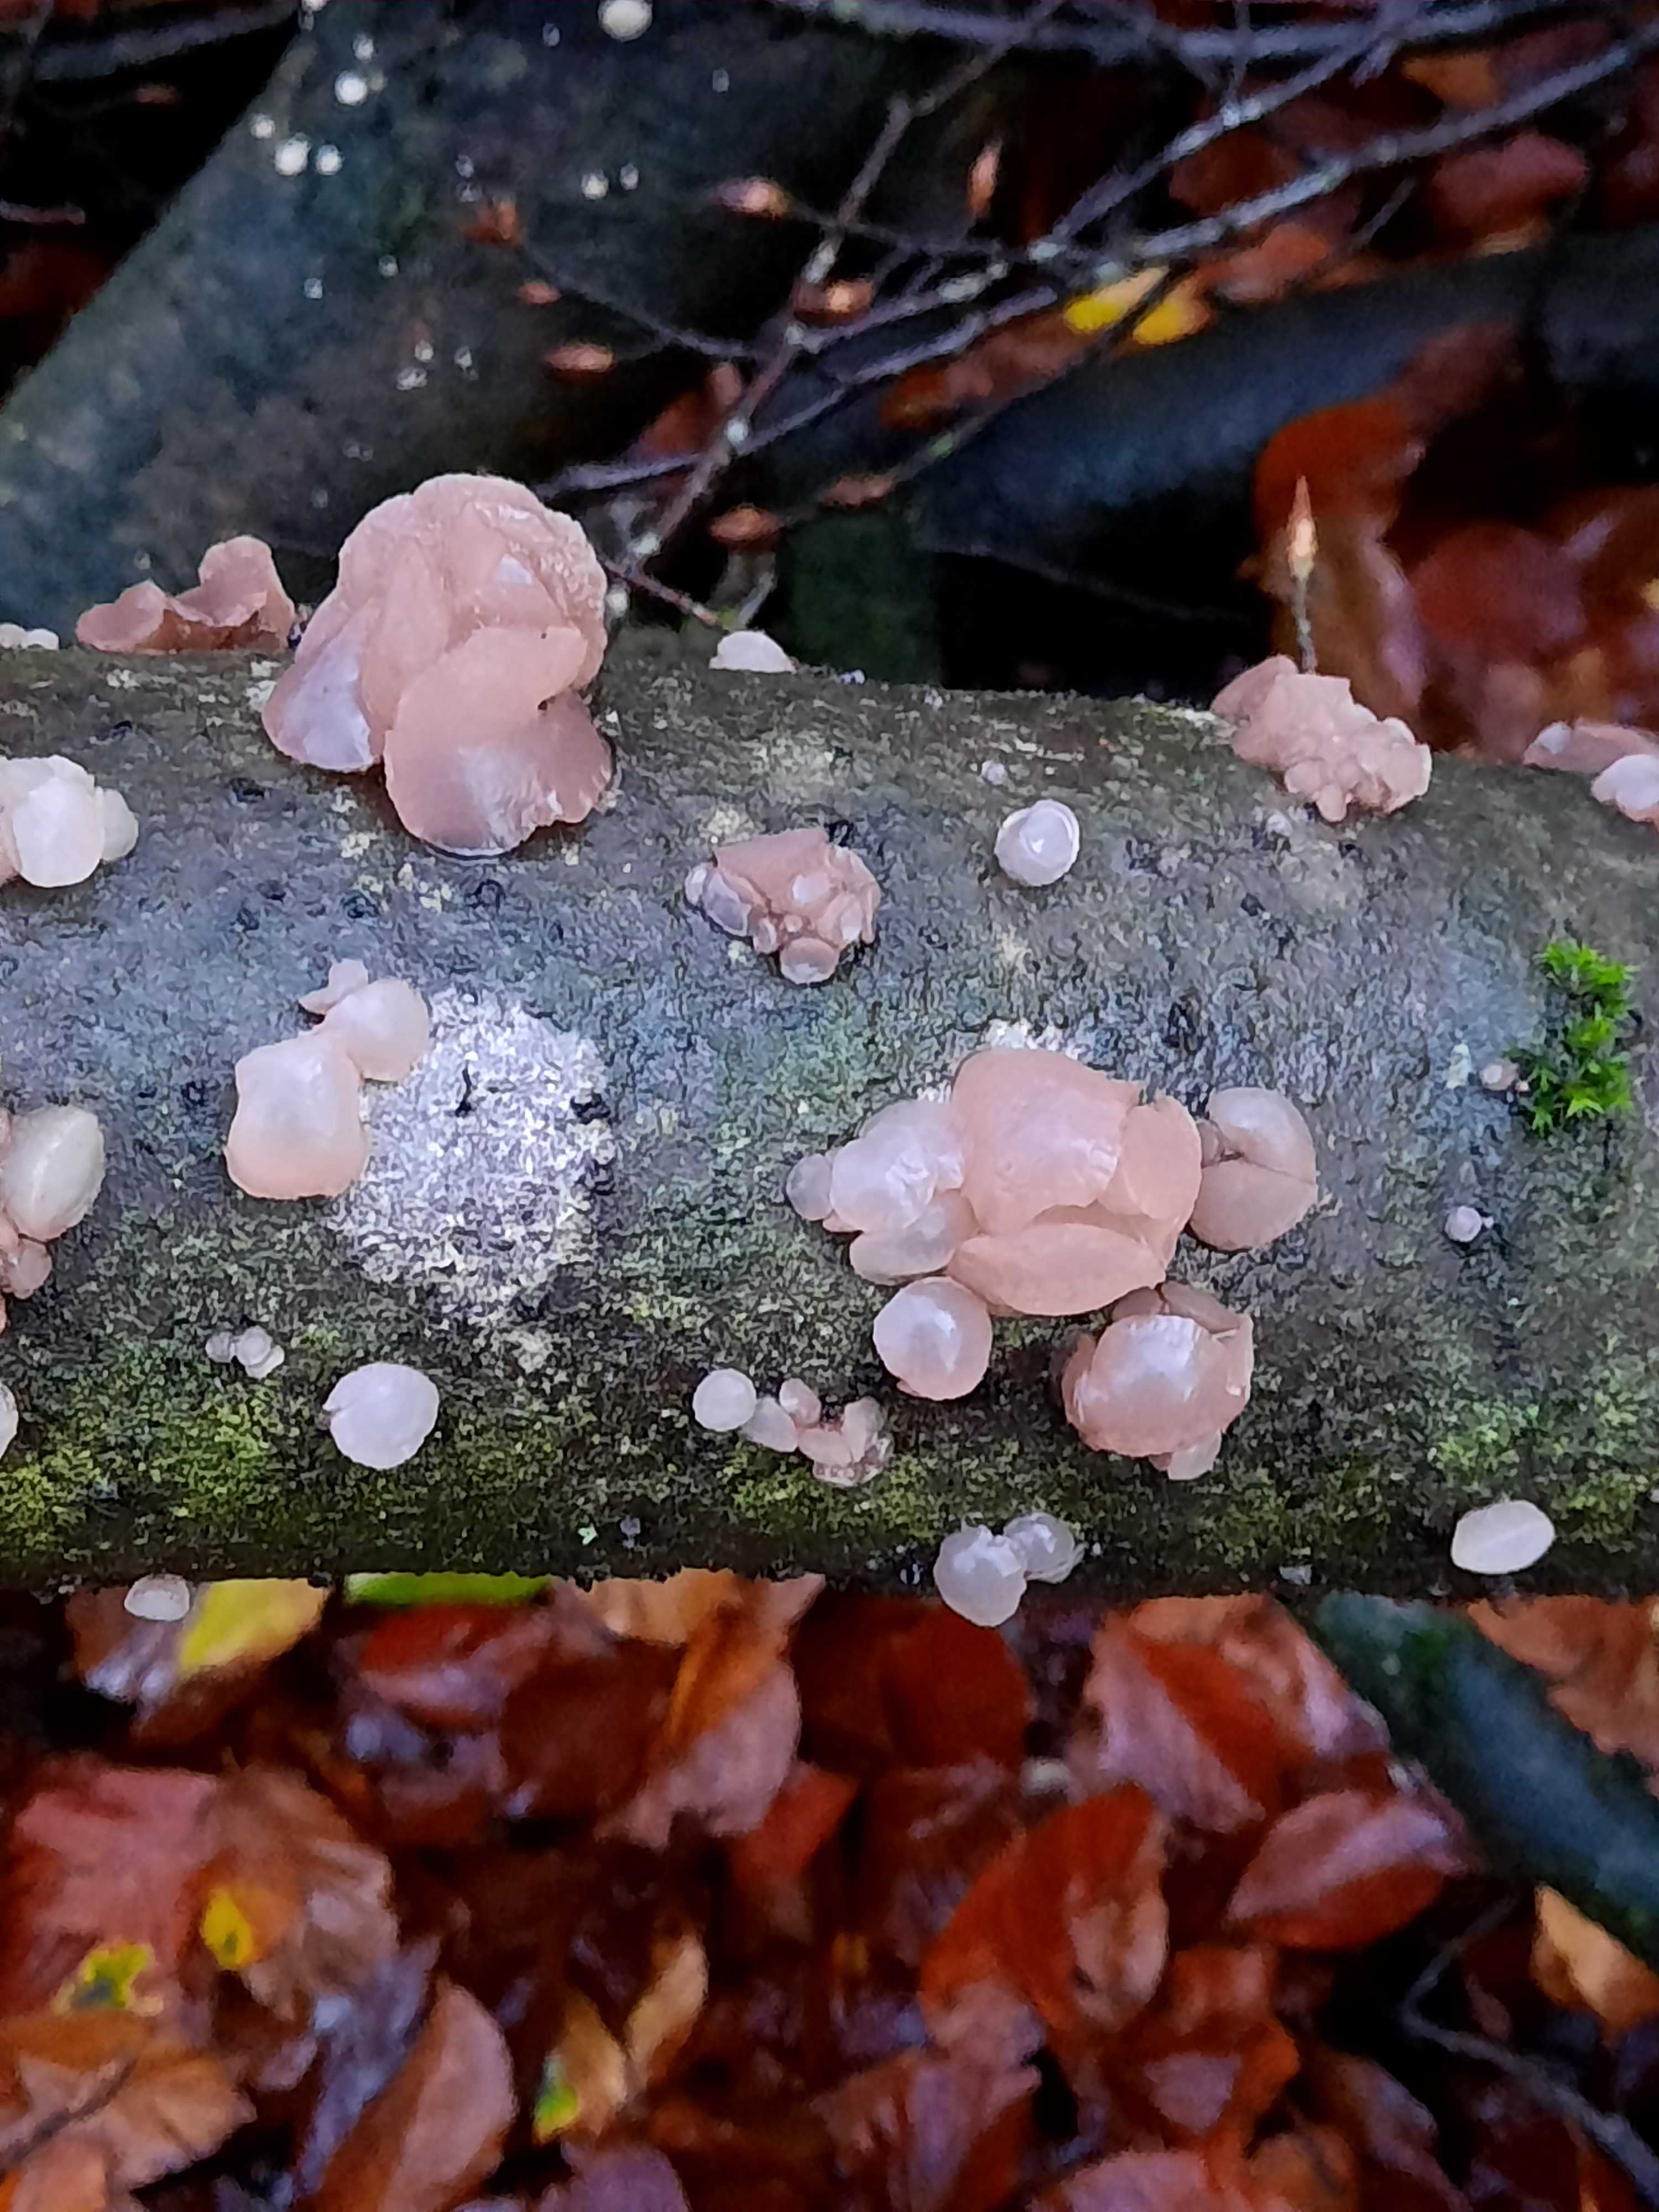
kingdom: Fungi
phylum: Ascomycota
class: Leotiomycetes
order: Helotiales
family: Gelatinodiscaceae
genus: Neobulgaria
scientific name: Neobulgaria pura
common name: bleg bævreskive
